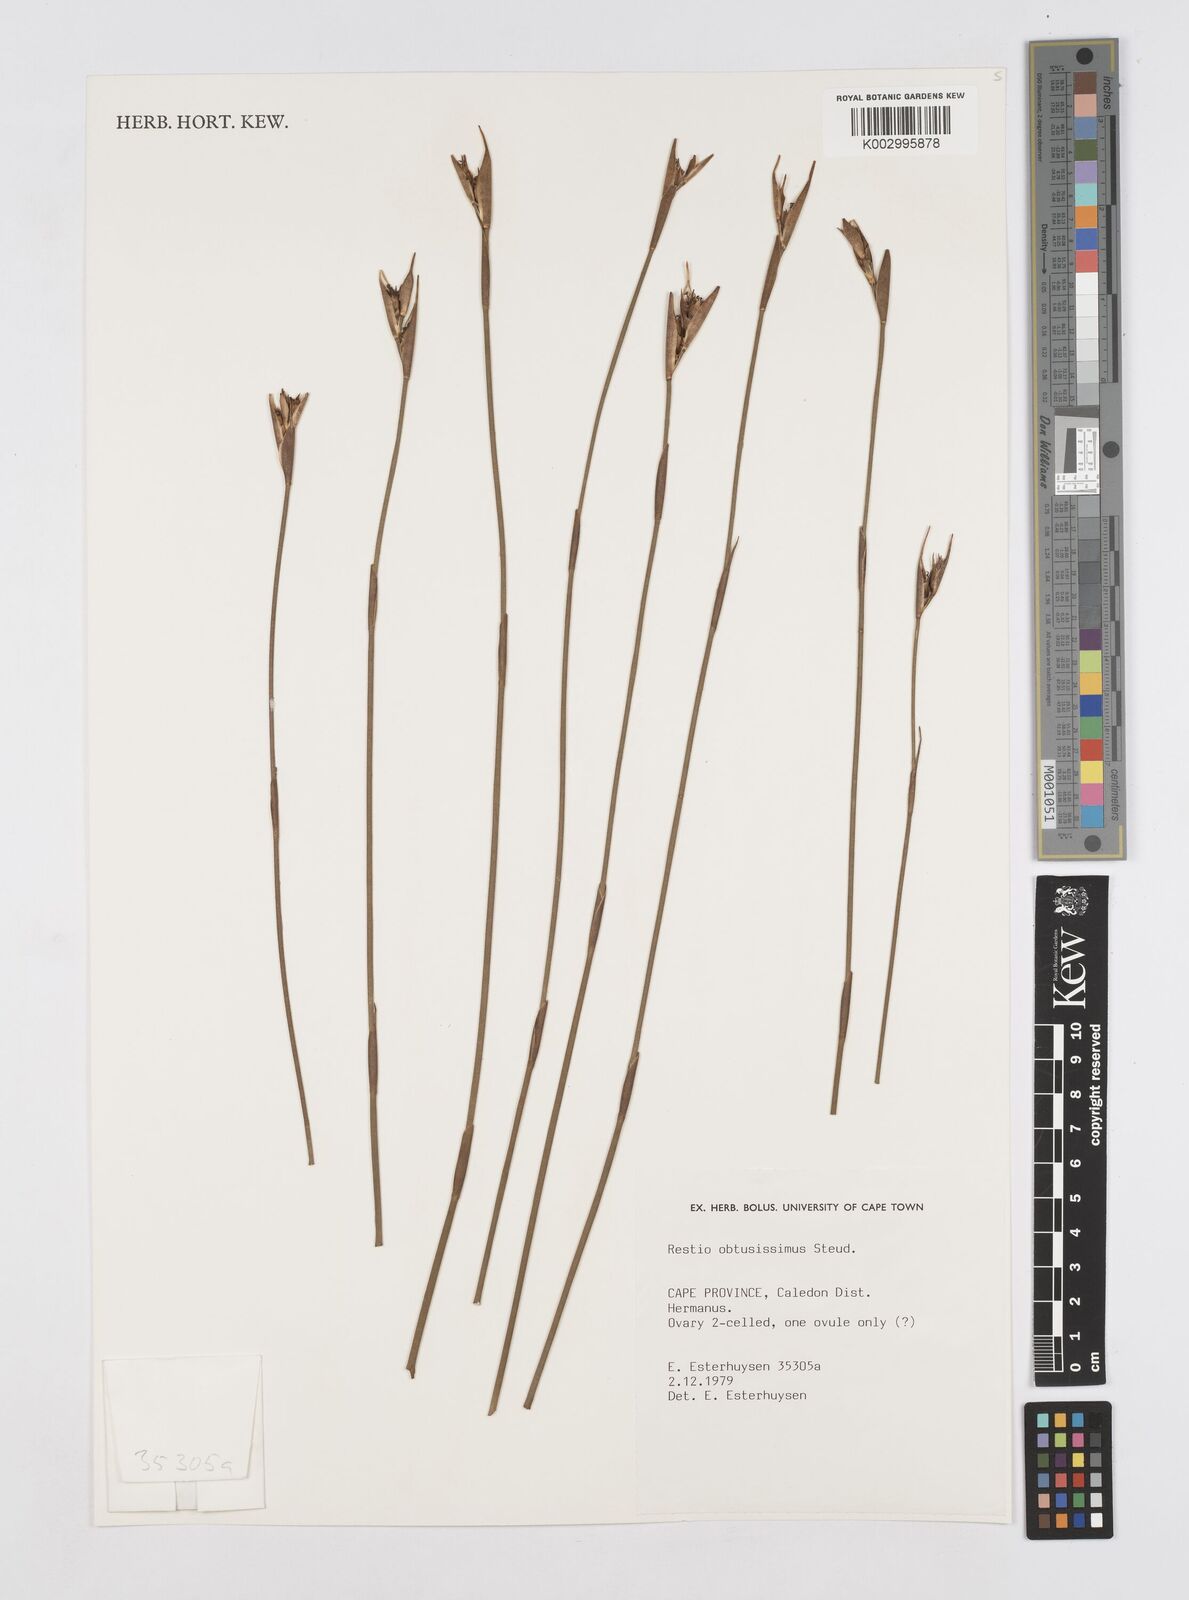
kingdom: Plantae
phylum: Tracheophyta
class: Liliopsida
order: Poales
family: Restionaceae
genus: Nevillea
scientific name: Nevillea obtusissimus
